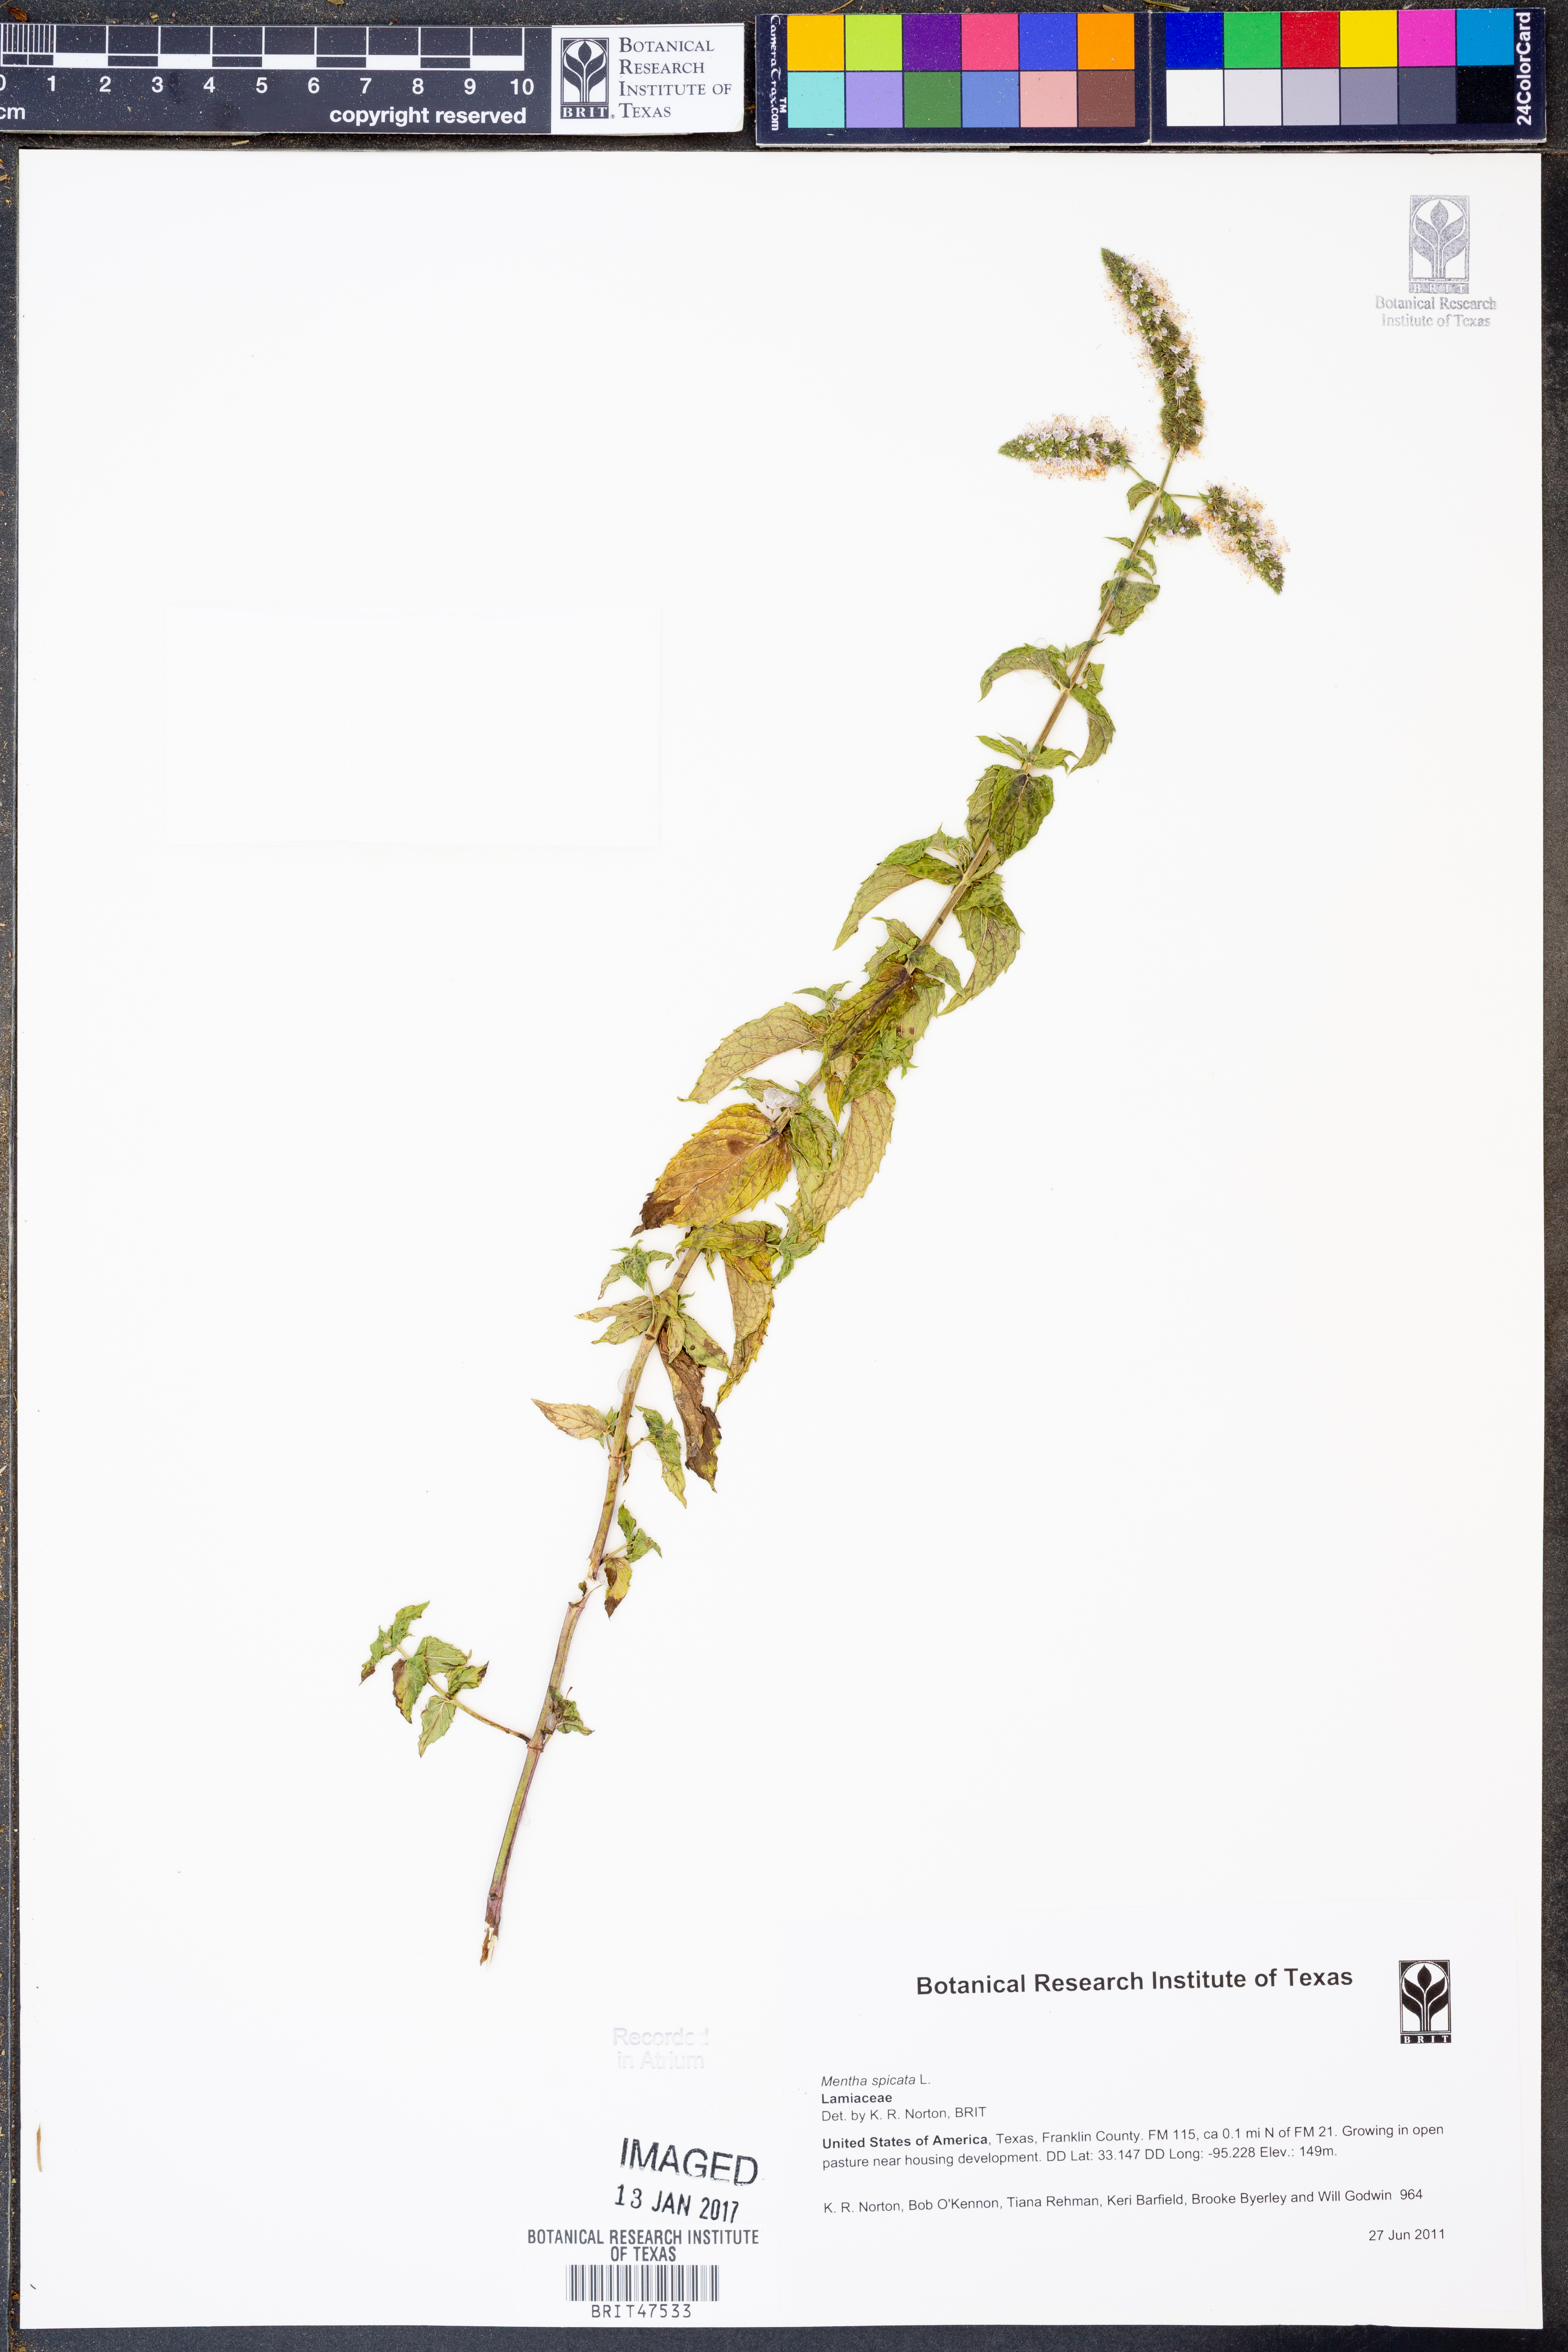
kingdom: Plantae
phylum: Tracheophyta
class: Magnoliopsida
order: Lamiales
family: Lamiaceae
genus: Mentha
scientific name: Mentha spicata
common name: Spearmint
